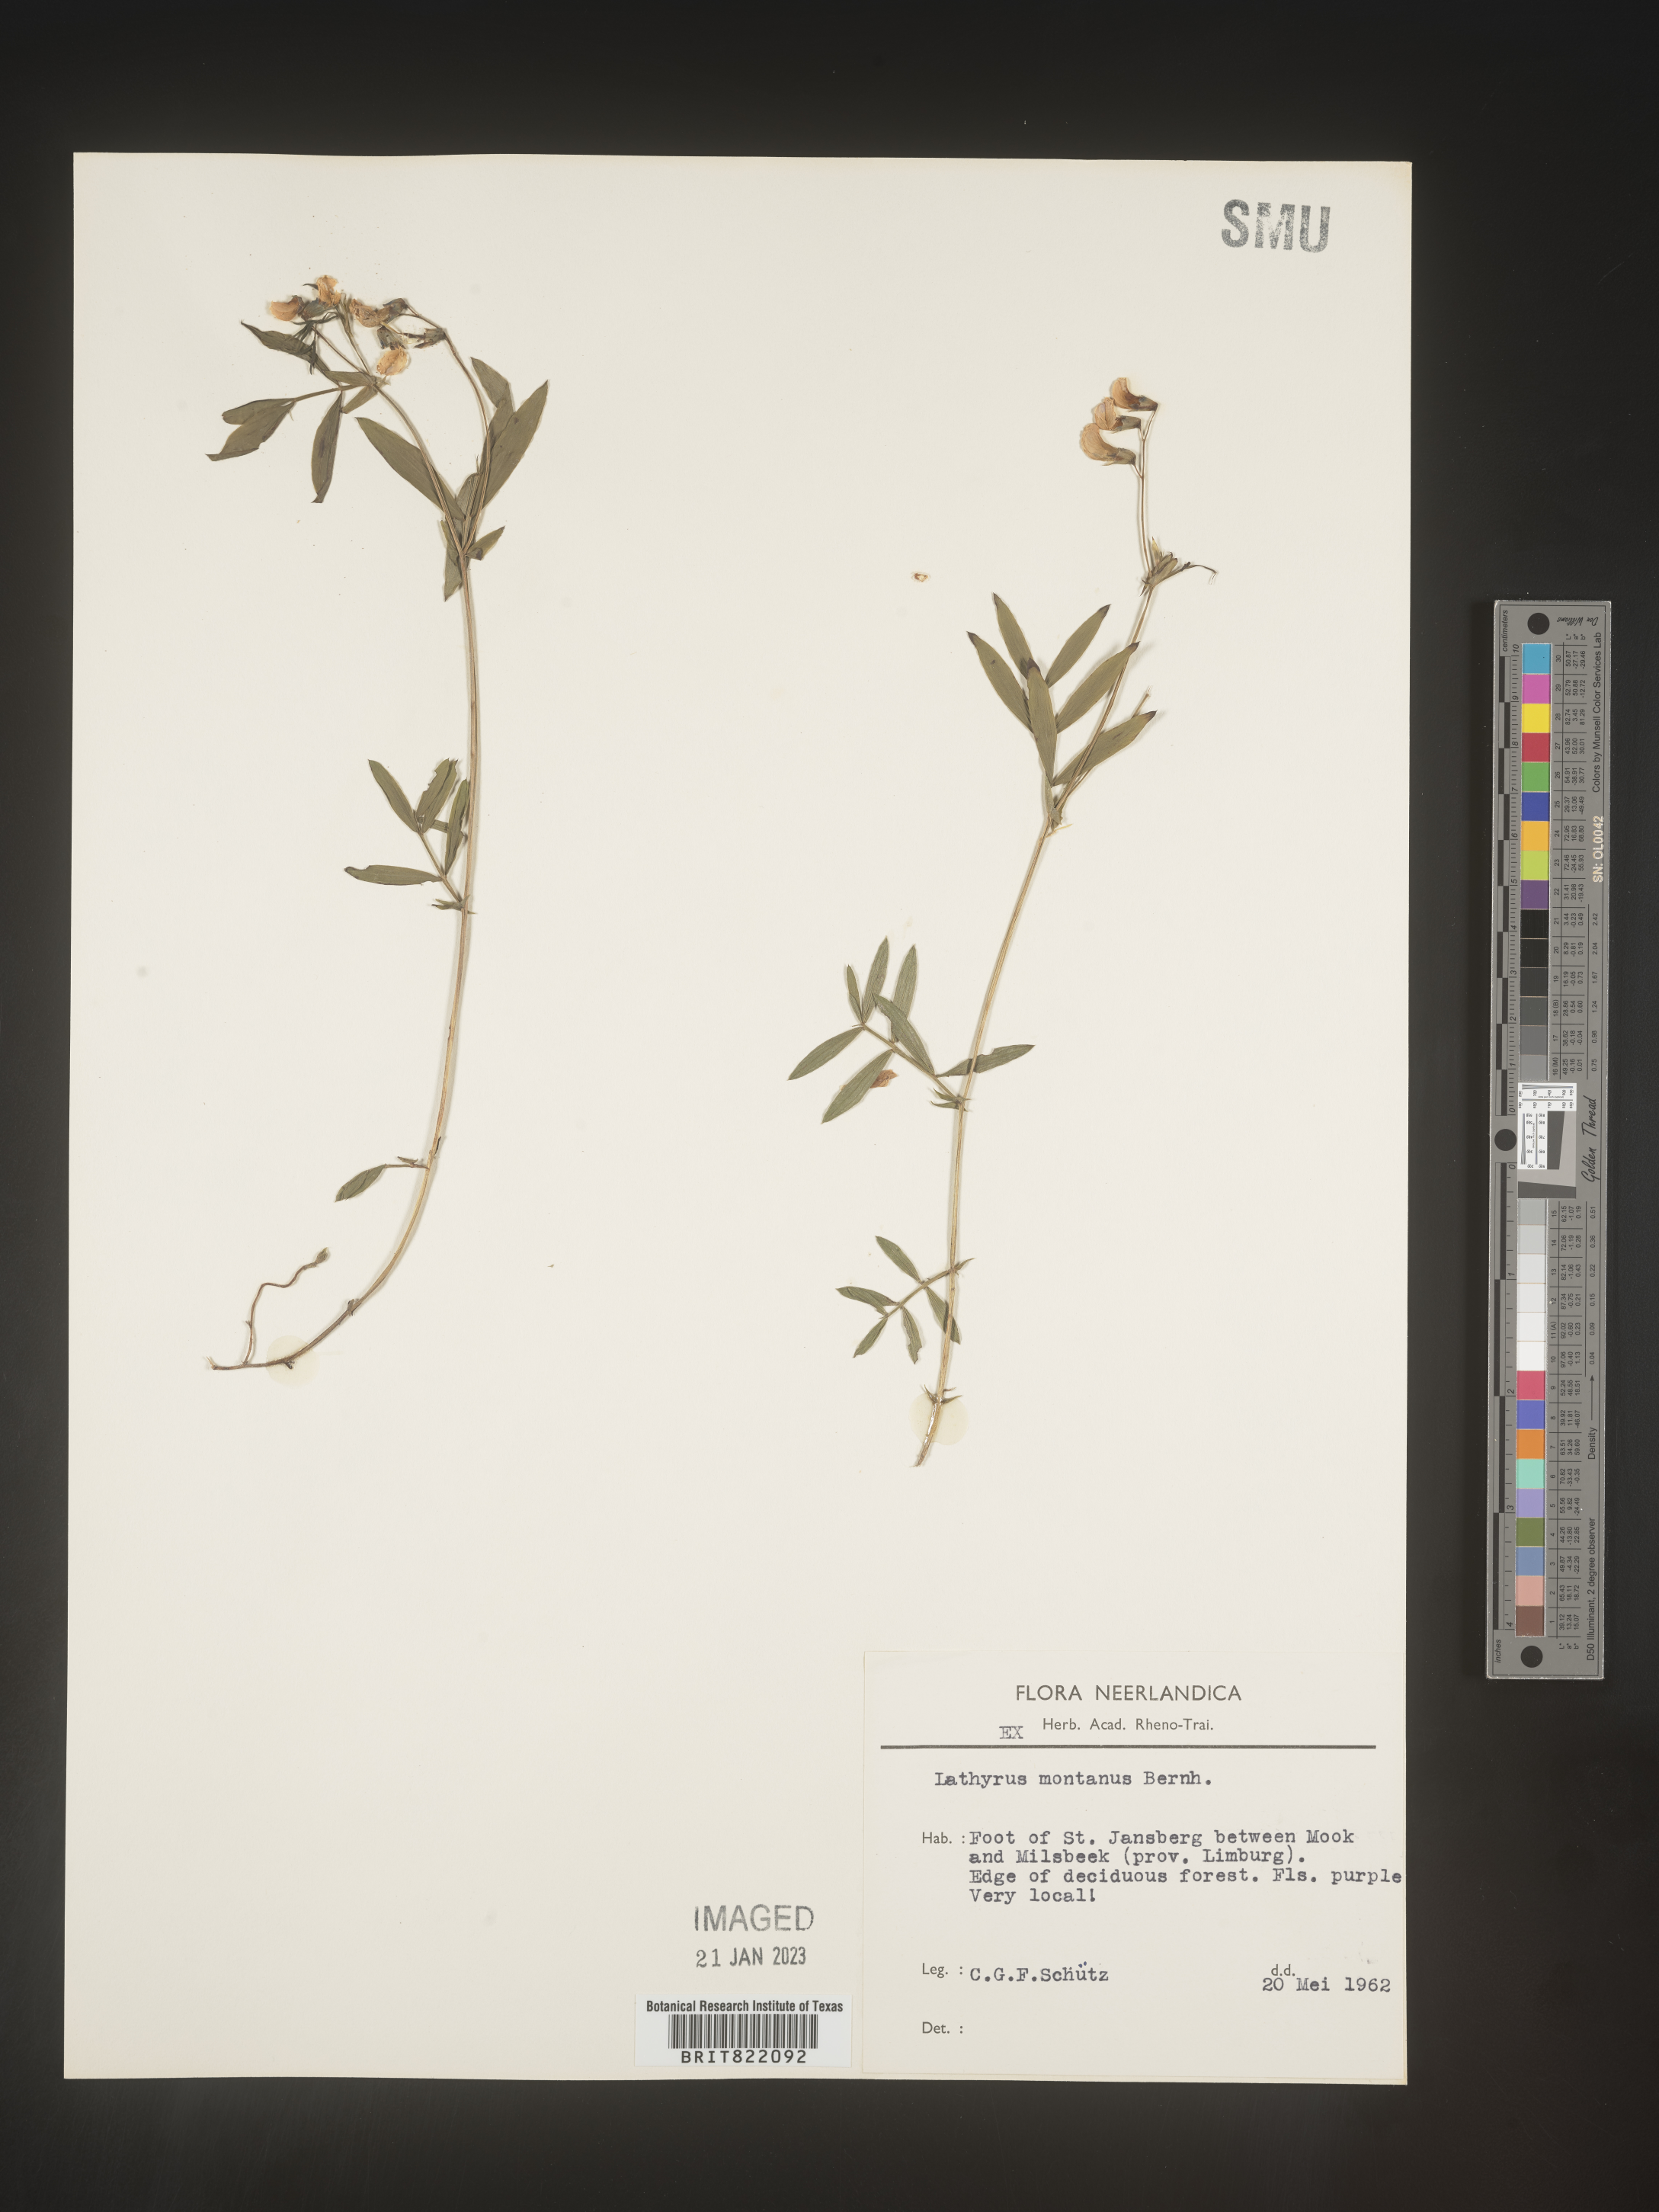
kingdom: Plantae
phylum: Tracheophyta
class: Magnoliopsida
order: Fabales
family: Fabaceae
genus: Lathyrus
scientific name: Lathyrus
